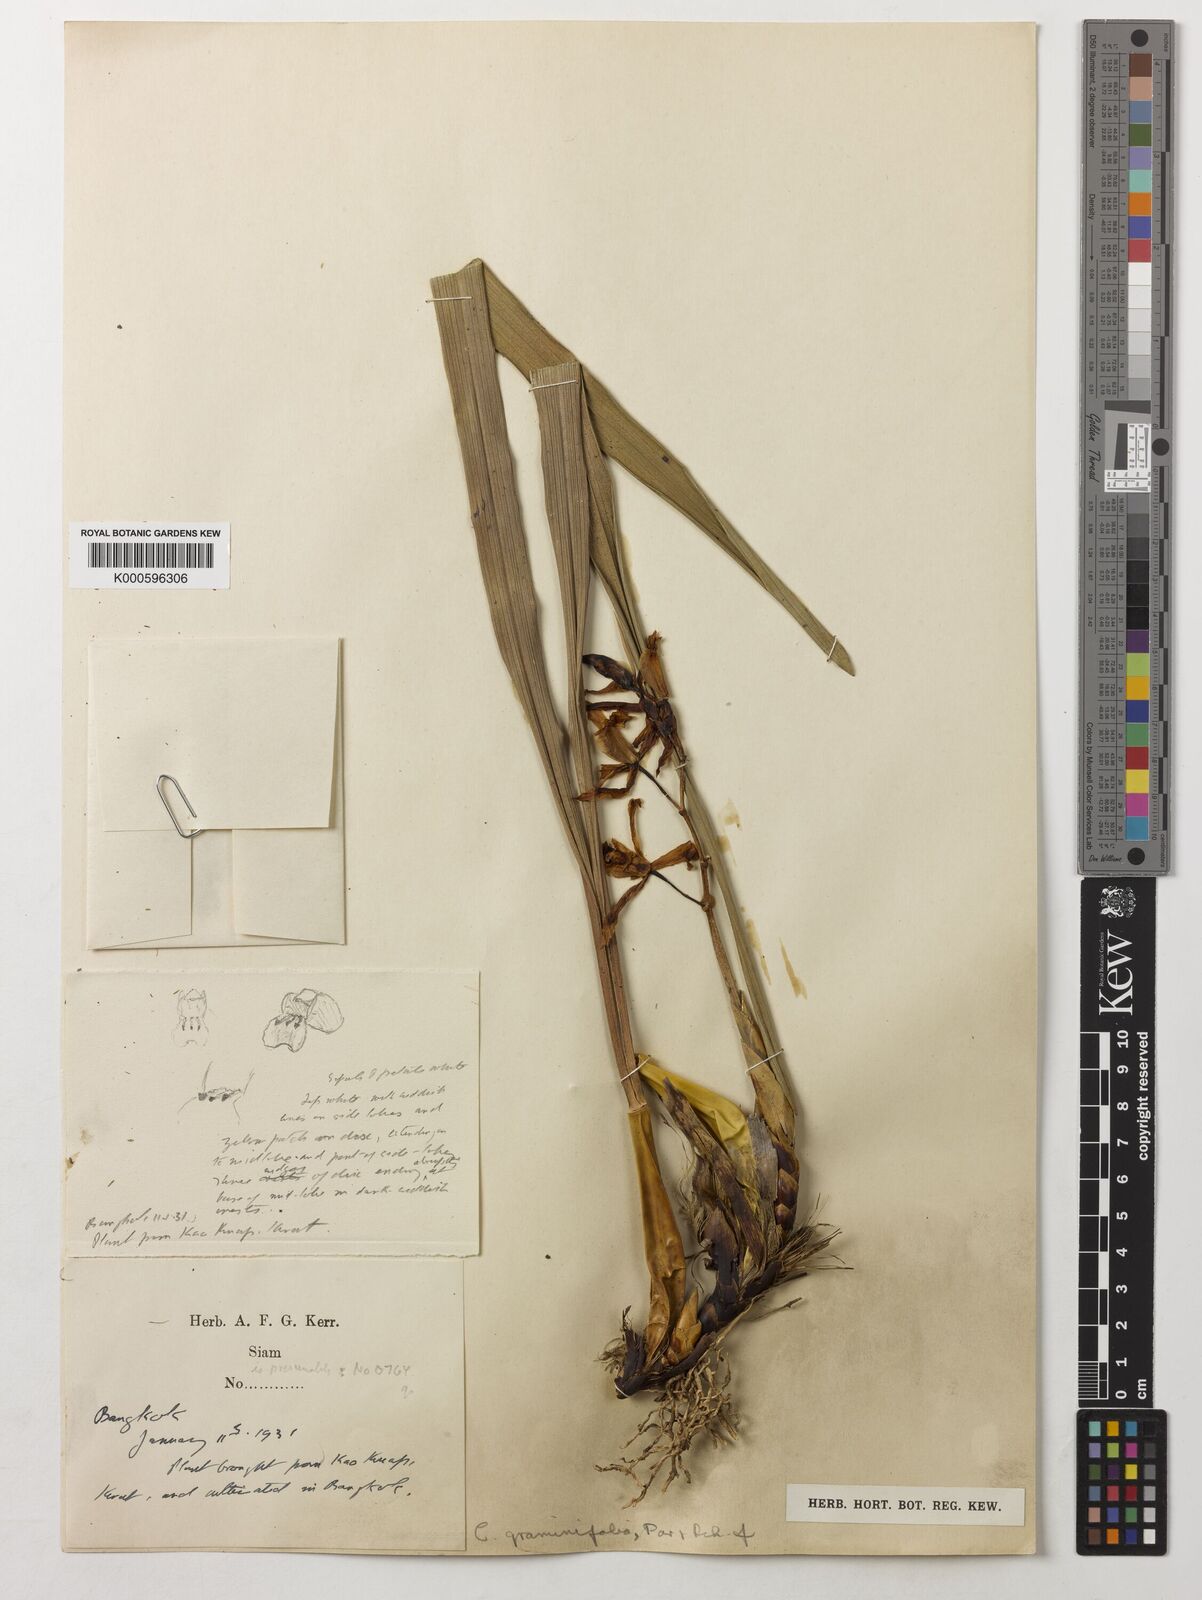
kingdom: Plantae
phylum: Tracheophyta
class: Liliopsida
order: Asparagales
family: Orchidaceae
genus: Coelogyne
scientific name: Coelogyne viscosa
